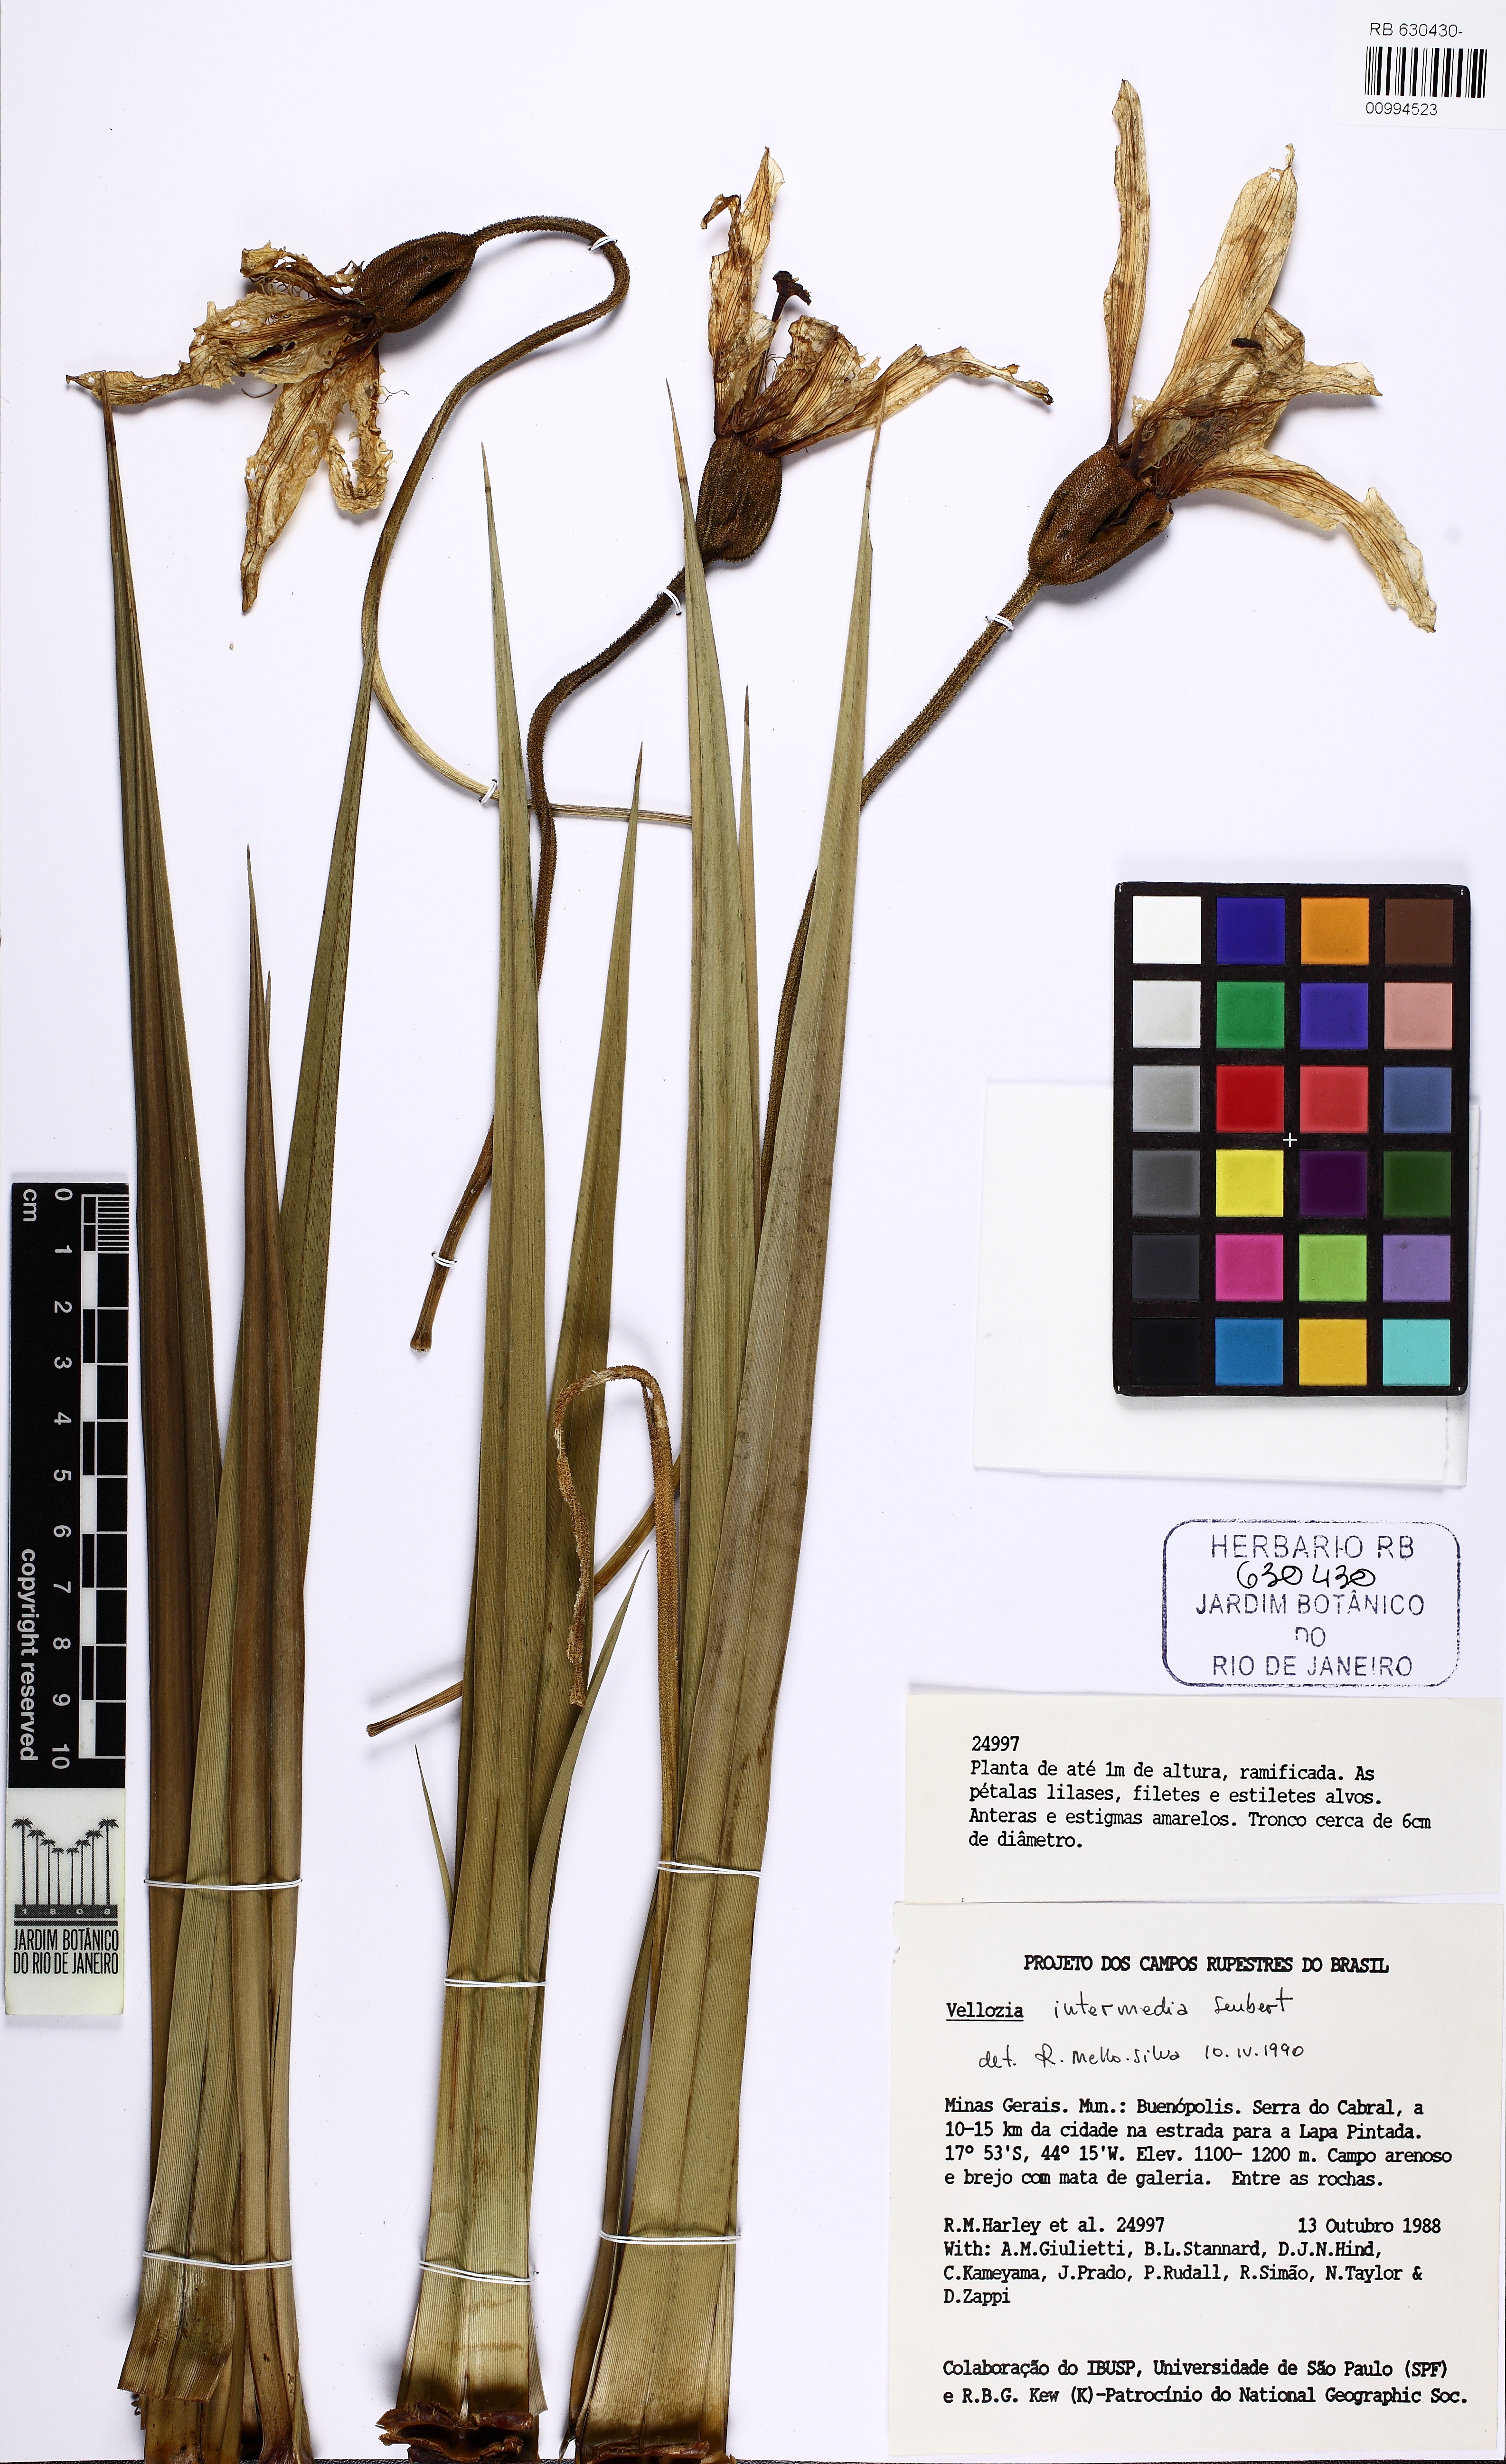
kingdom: Plantae
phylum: Tracheophyta
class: Liliopsida
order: Pandanales
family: Velloziaceae
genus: Vellozia
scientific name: Vellozia intermedia
